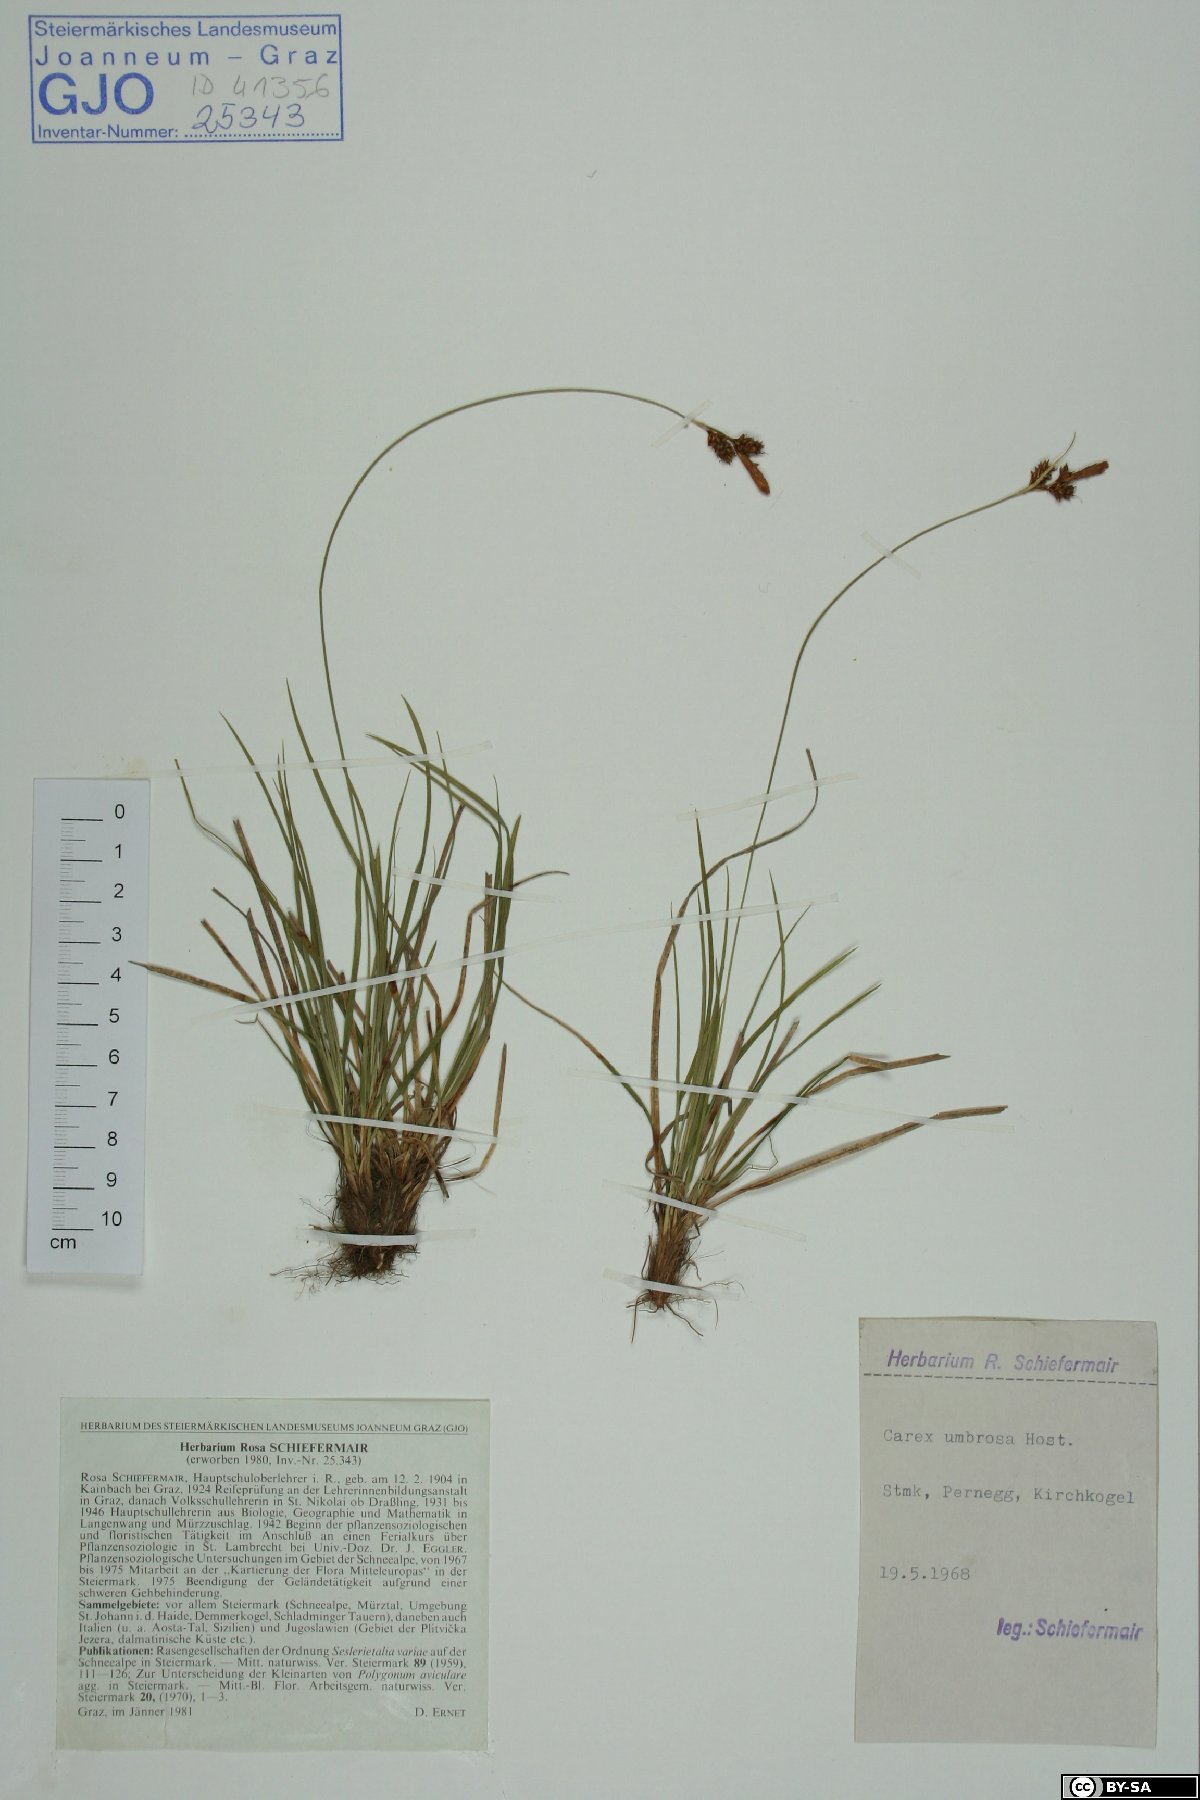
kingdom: Plantae
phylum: Tracheophyta
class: Liliopsida
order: Poales
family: Cyperaceae
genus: Carex
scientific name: Carex umbrosa
